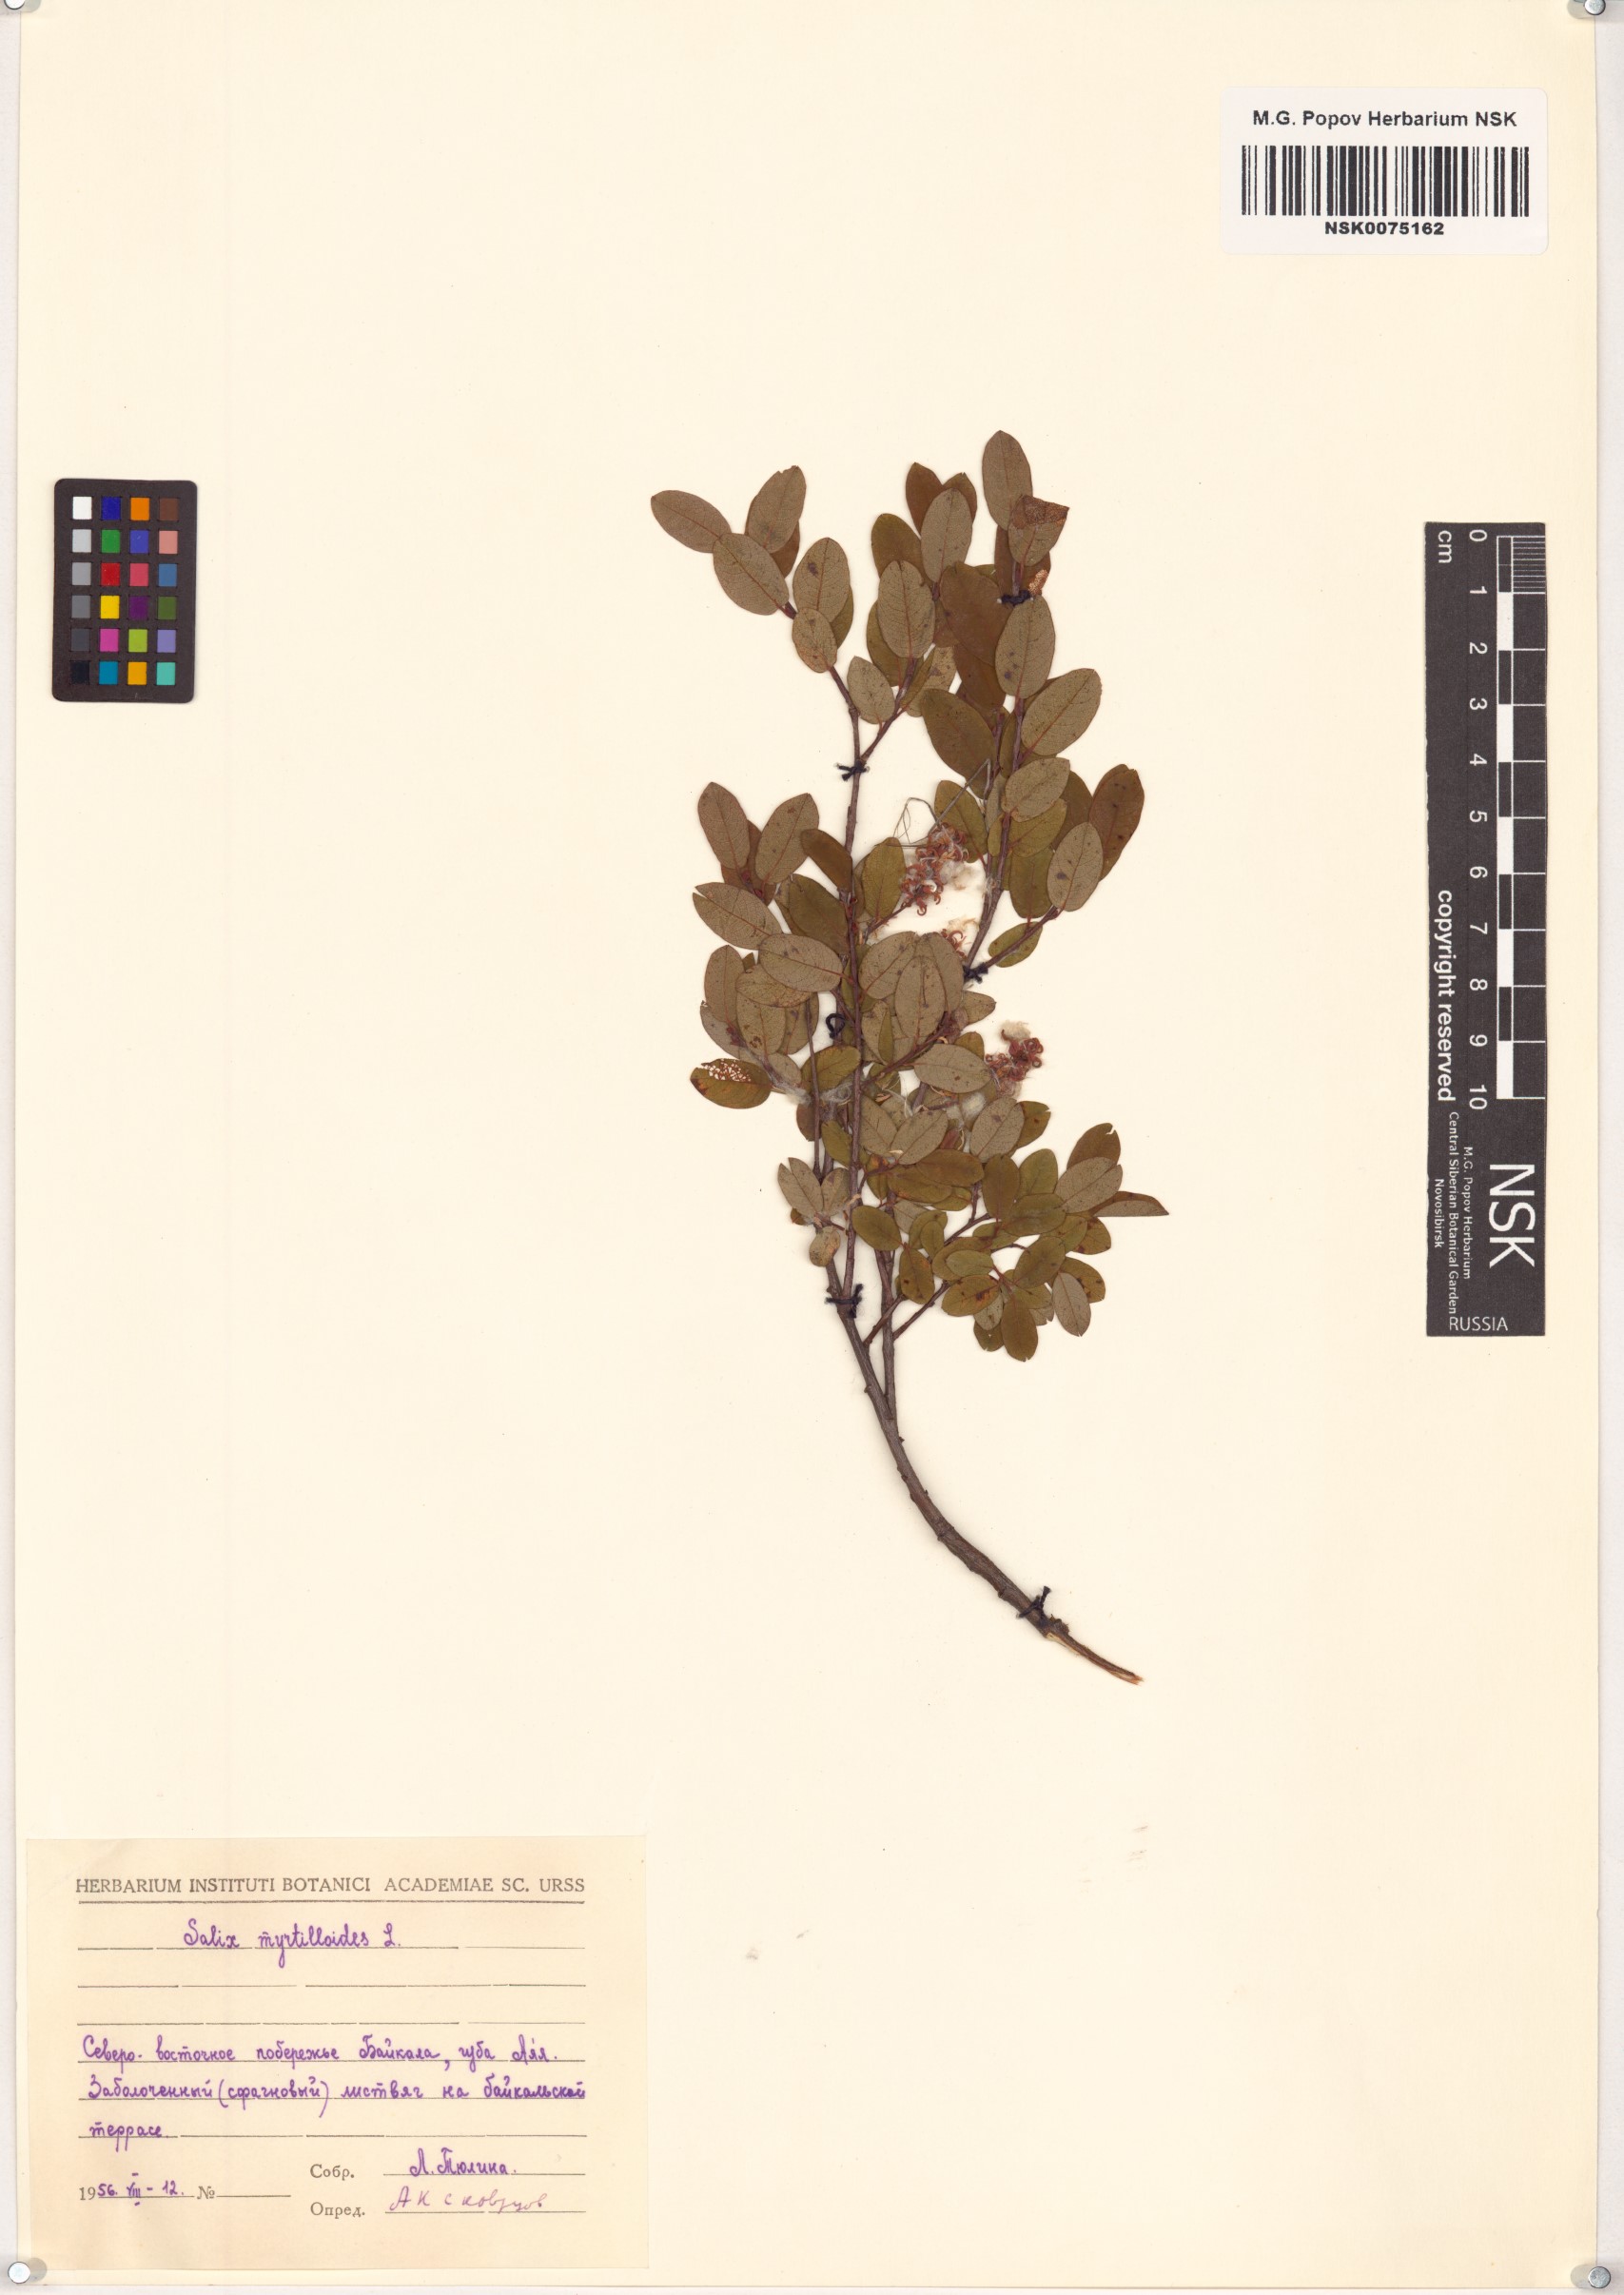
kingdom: Plantae
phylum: Tracheophyta
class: Magnoliopsida
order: Malpighiales
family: Salicaceae
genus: Salix
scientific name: Salix myrtilloides
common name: Myrtle-leaved willow
